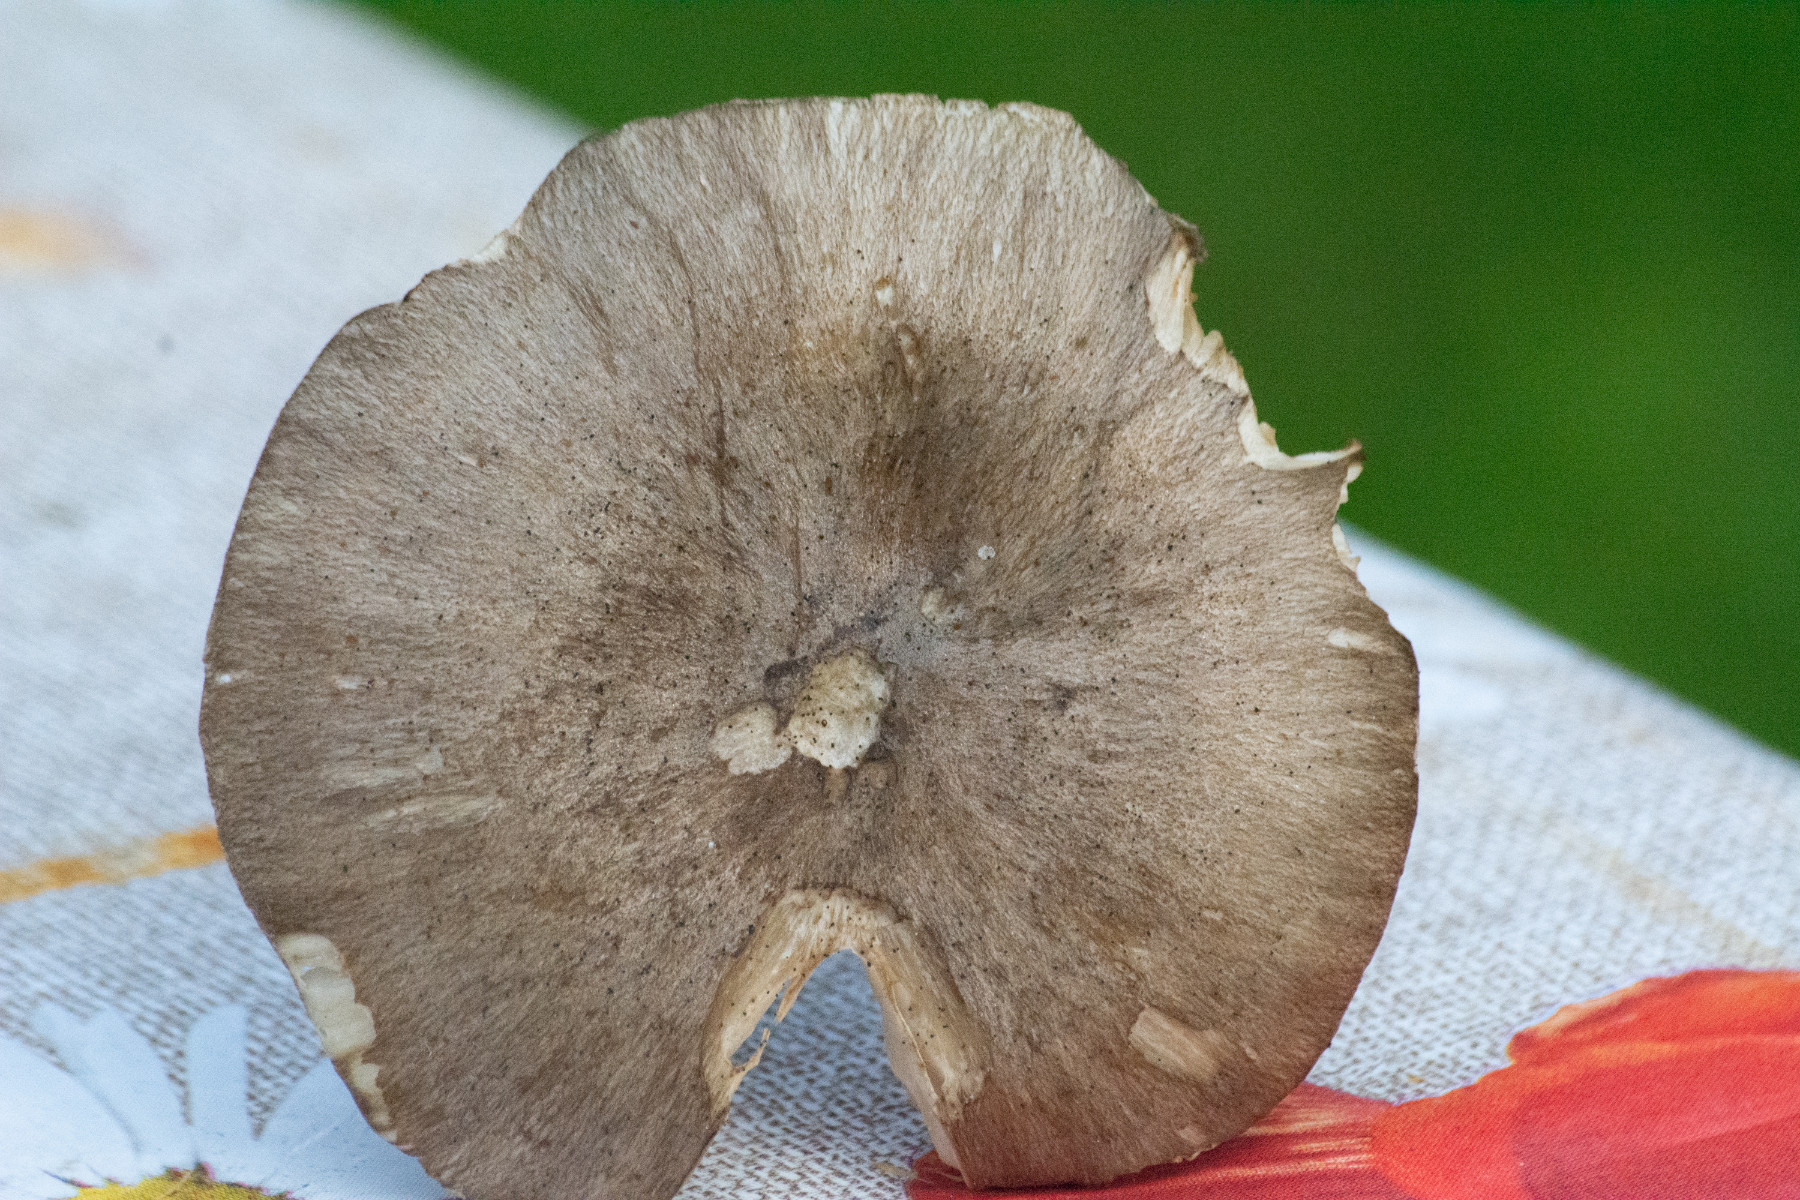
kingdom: Fungi
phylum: Basidiomycota
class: Agaricomycetes
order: Agaricales
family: Tricholomataceae
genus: Megacollybia
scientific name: Megacollybia platyphylla
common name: bredbladet væbnerhat
